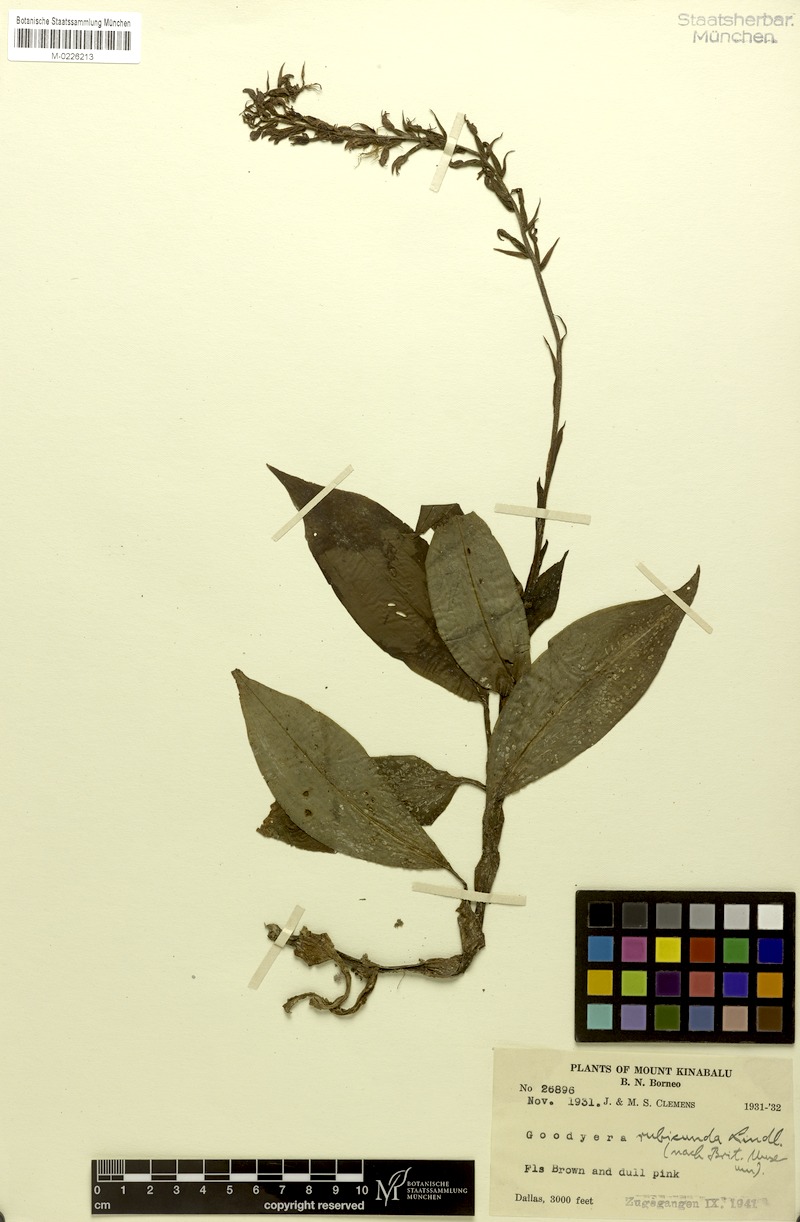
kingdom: Plantae
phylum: Tracheophyta
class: Liliopsida
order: Asparagales
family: Orchidaceae
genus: Goodyera
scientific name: Goodyera rubicunda
